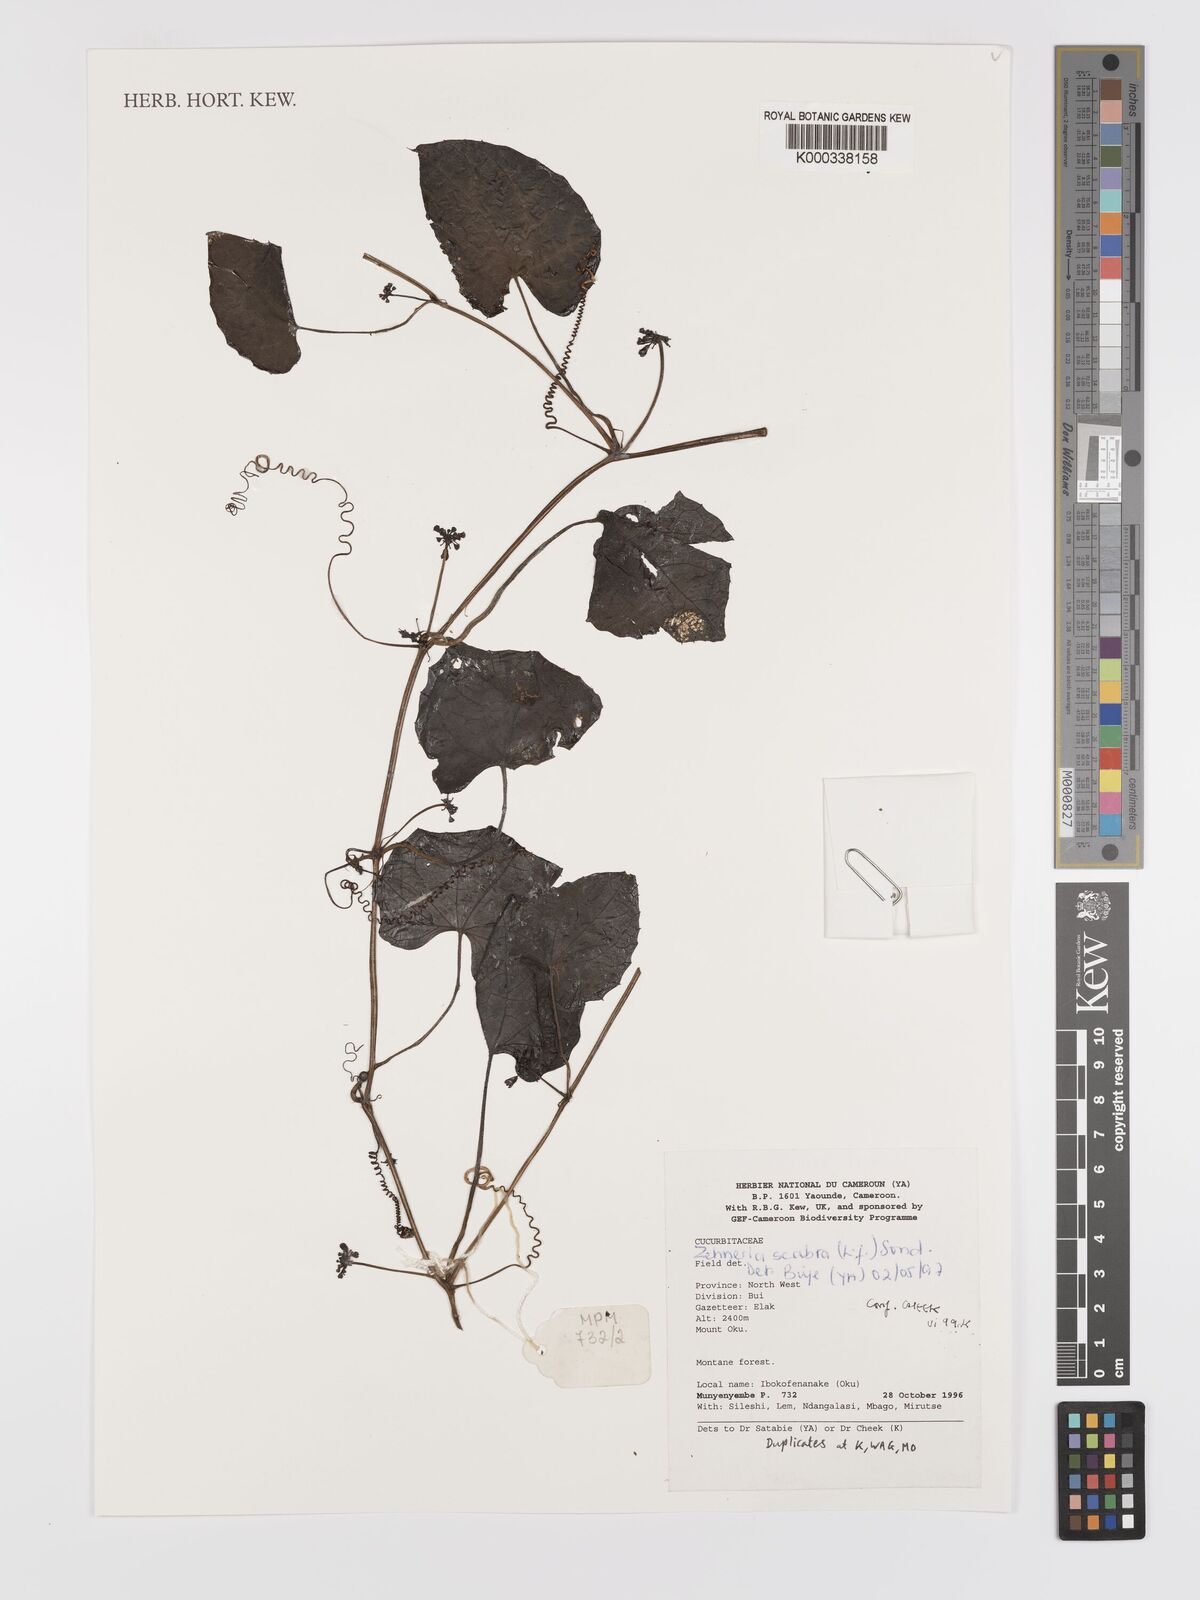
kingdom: Plantae
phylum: Tracheophyta
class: Magnoliopsida
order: Cucurbitales
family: Cucurbitaceae
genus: Zehneria
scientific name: Zehneria scabra
